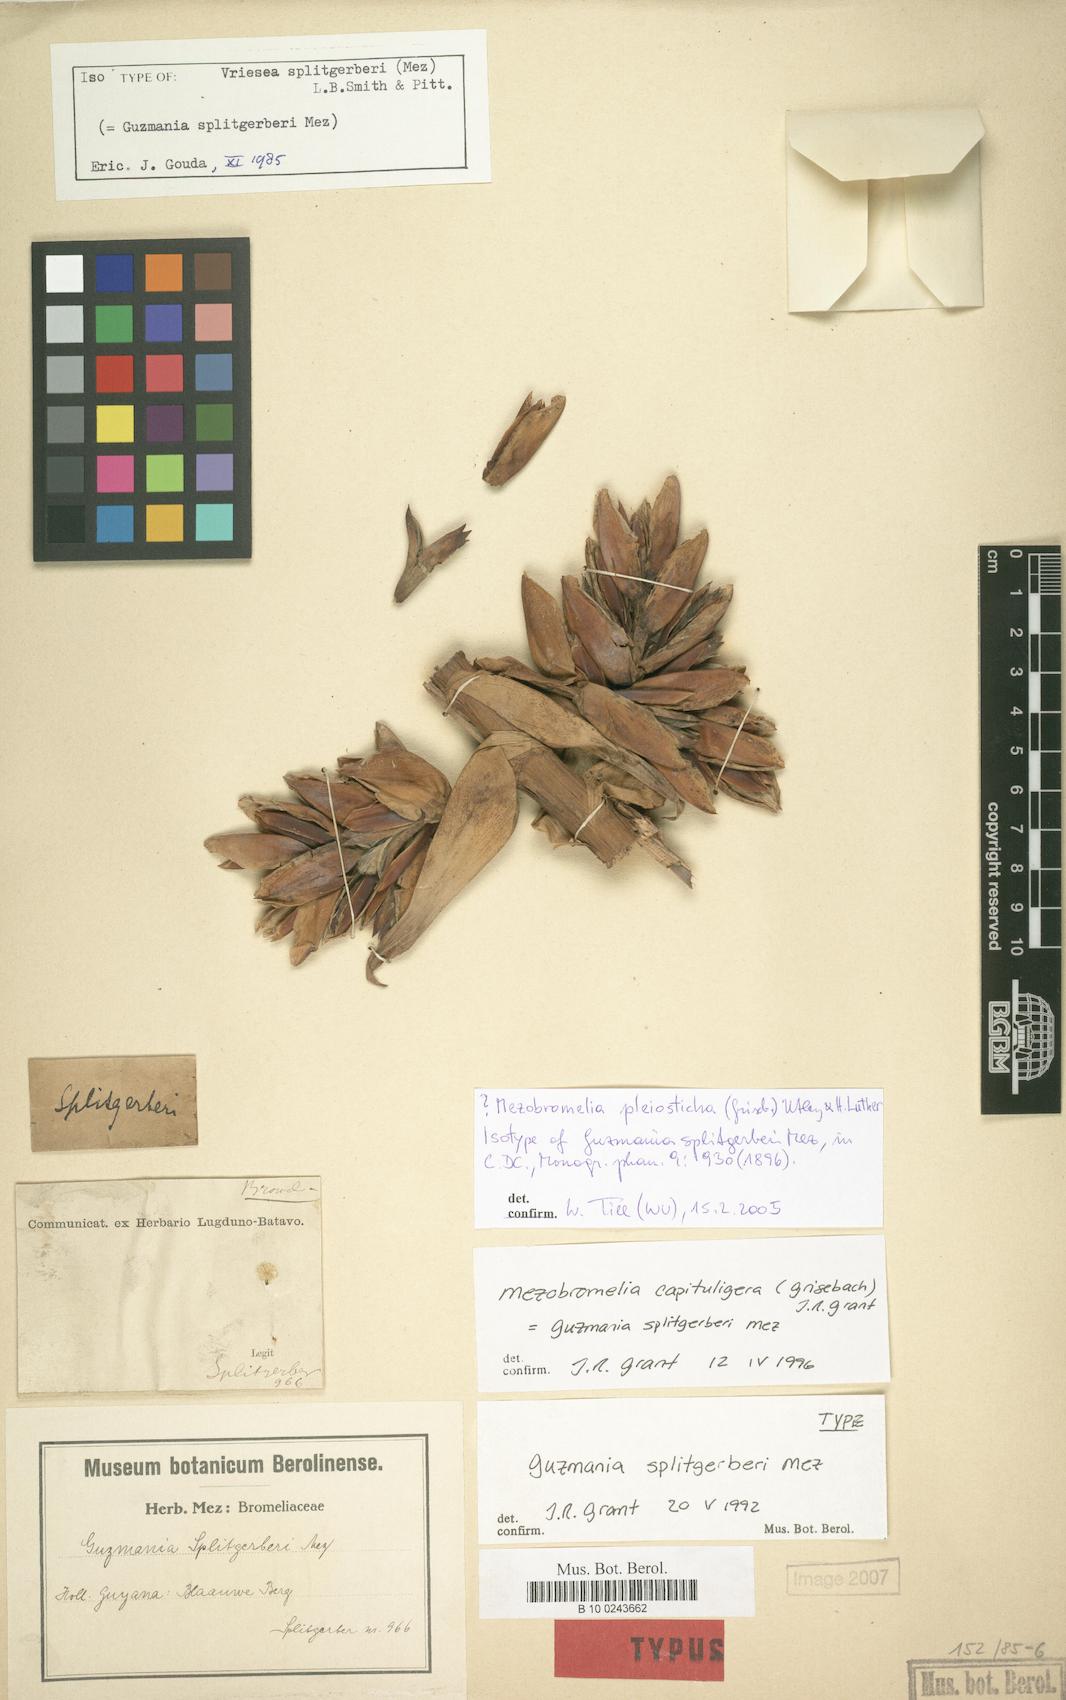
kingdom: Plantae
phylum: Tracheophyta
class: Liliopsida
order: Poales
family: Bromeliaceae
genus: Cipuropsis
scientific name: Cipuropsis capituligera
